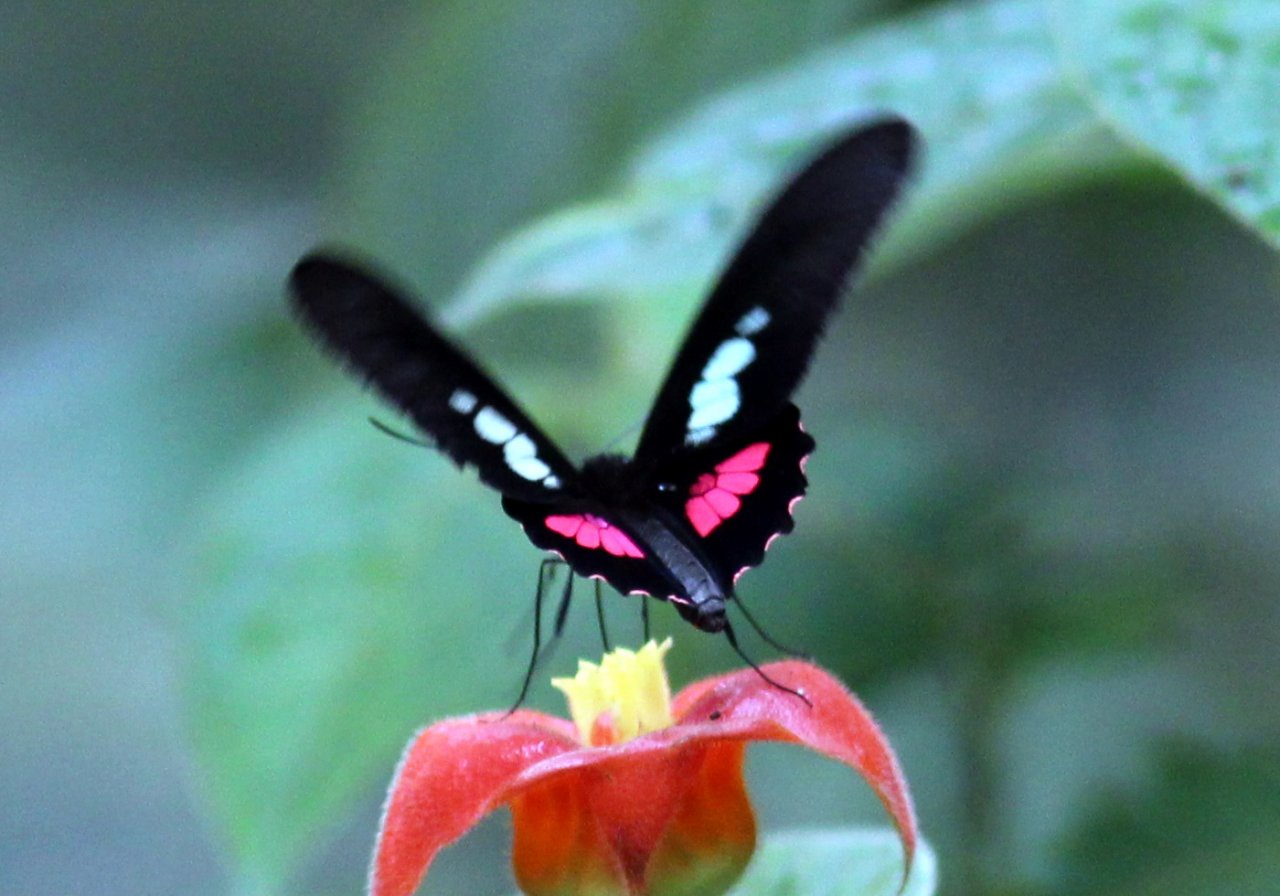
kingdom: Animalia
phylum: Arthropoda
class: Insecta
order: Lepidoptera
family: Papilionidae
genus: Parides
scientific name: Parides eurimedes
